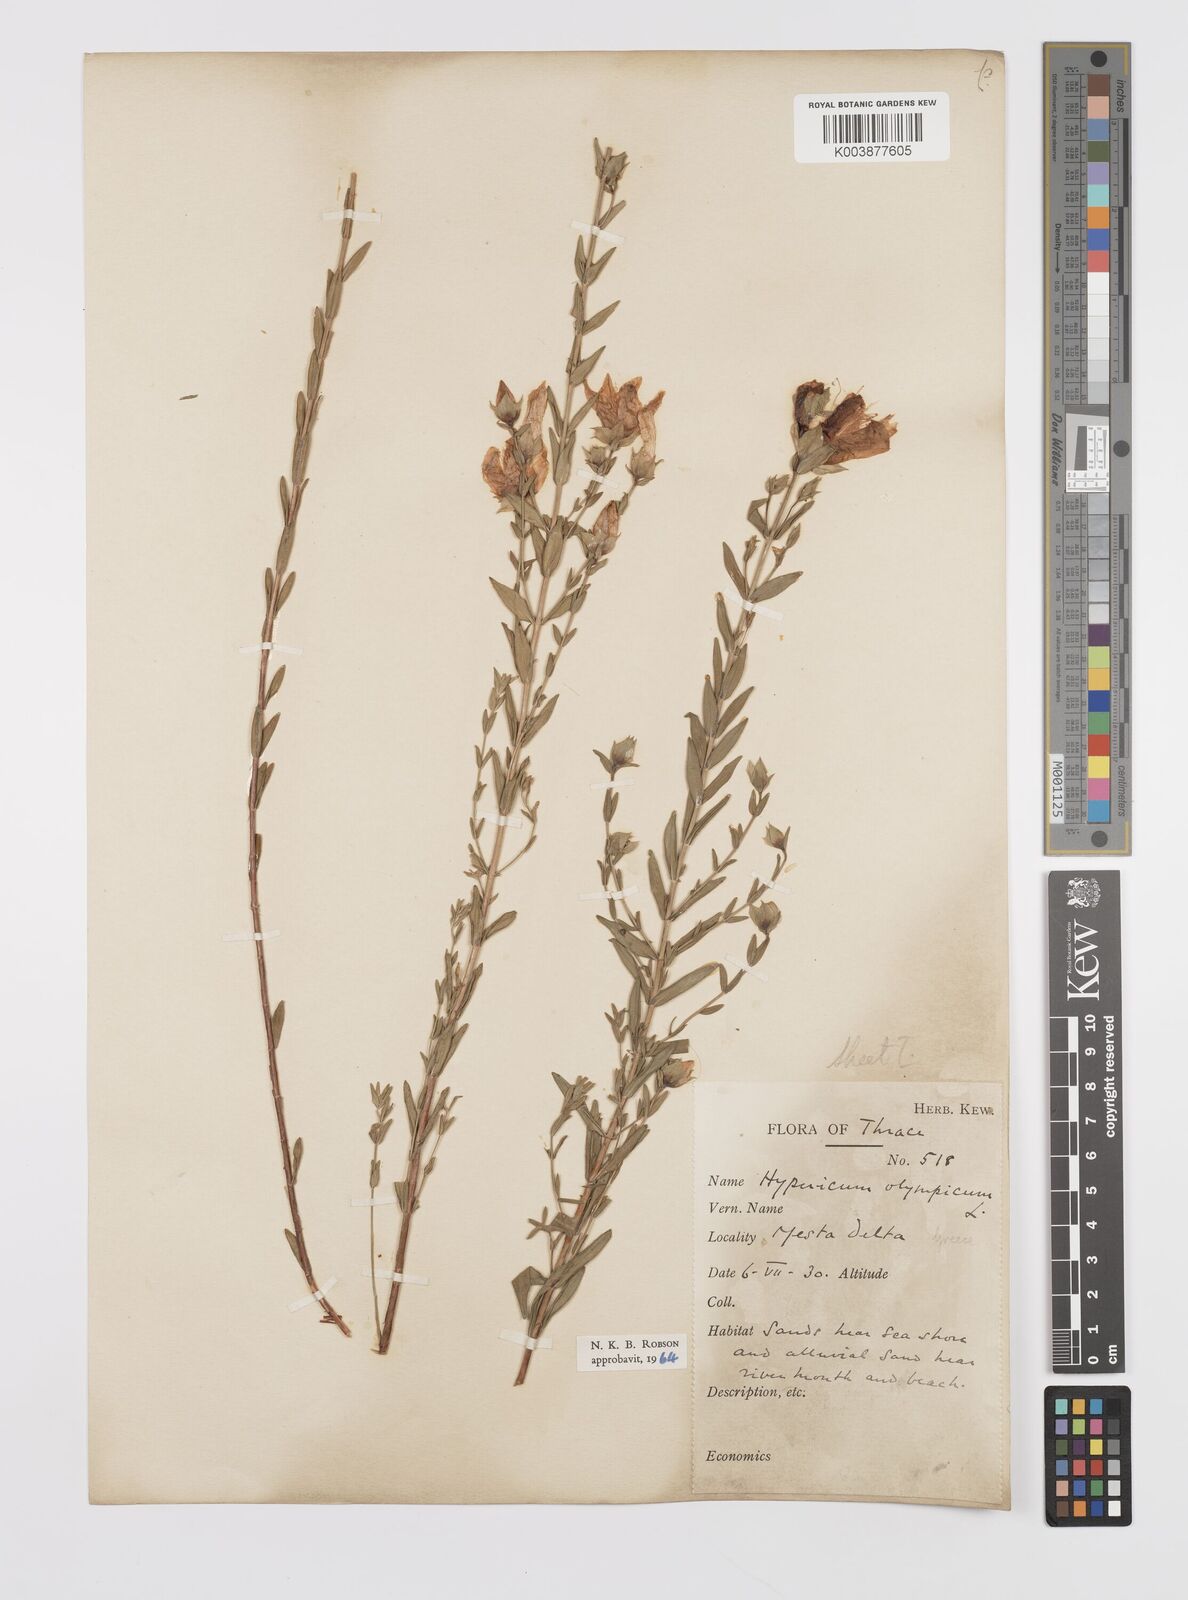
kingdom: Plantae
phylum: Tracheophyta
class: Magnoliopsida
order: Malpighiales
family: Hypericaceae
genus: Hypericum
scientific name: Hypericum olympicum
